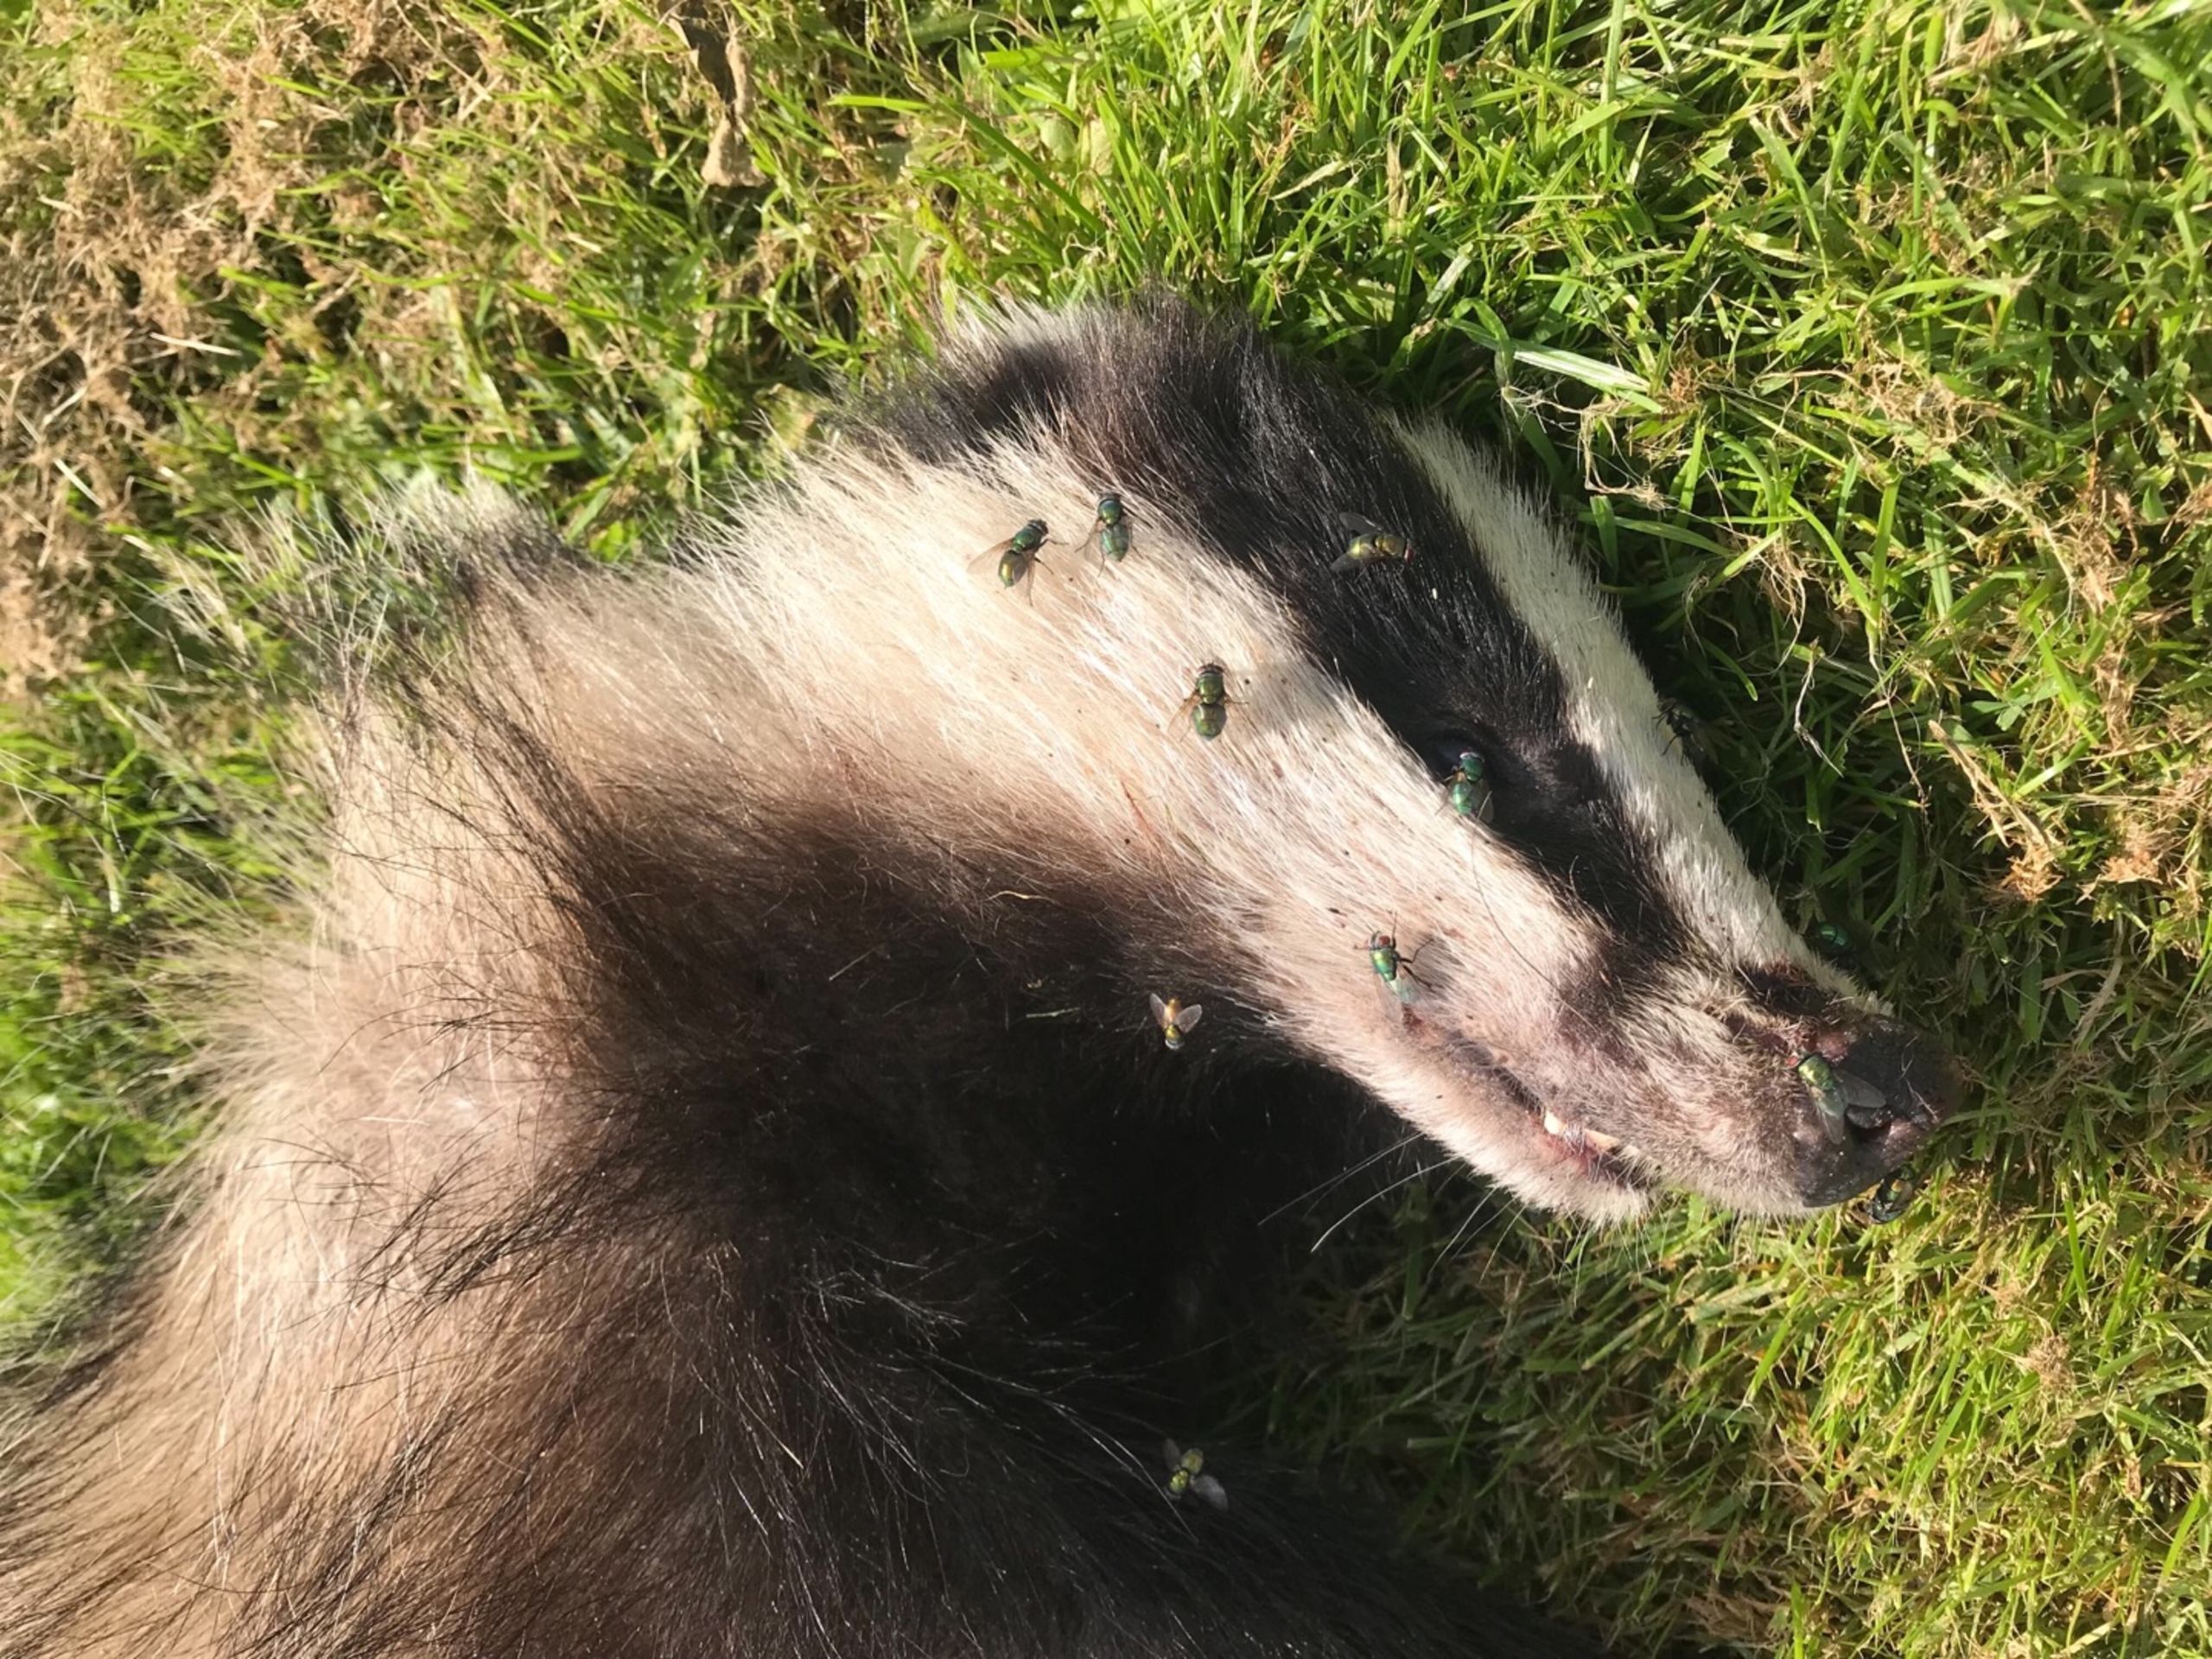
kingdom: Animalia
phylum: Chordata
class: Mammalia
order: Carnivora
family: Mustelidae
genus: Meles
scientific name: Meles meles
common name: Grævling
